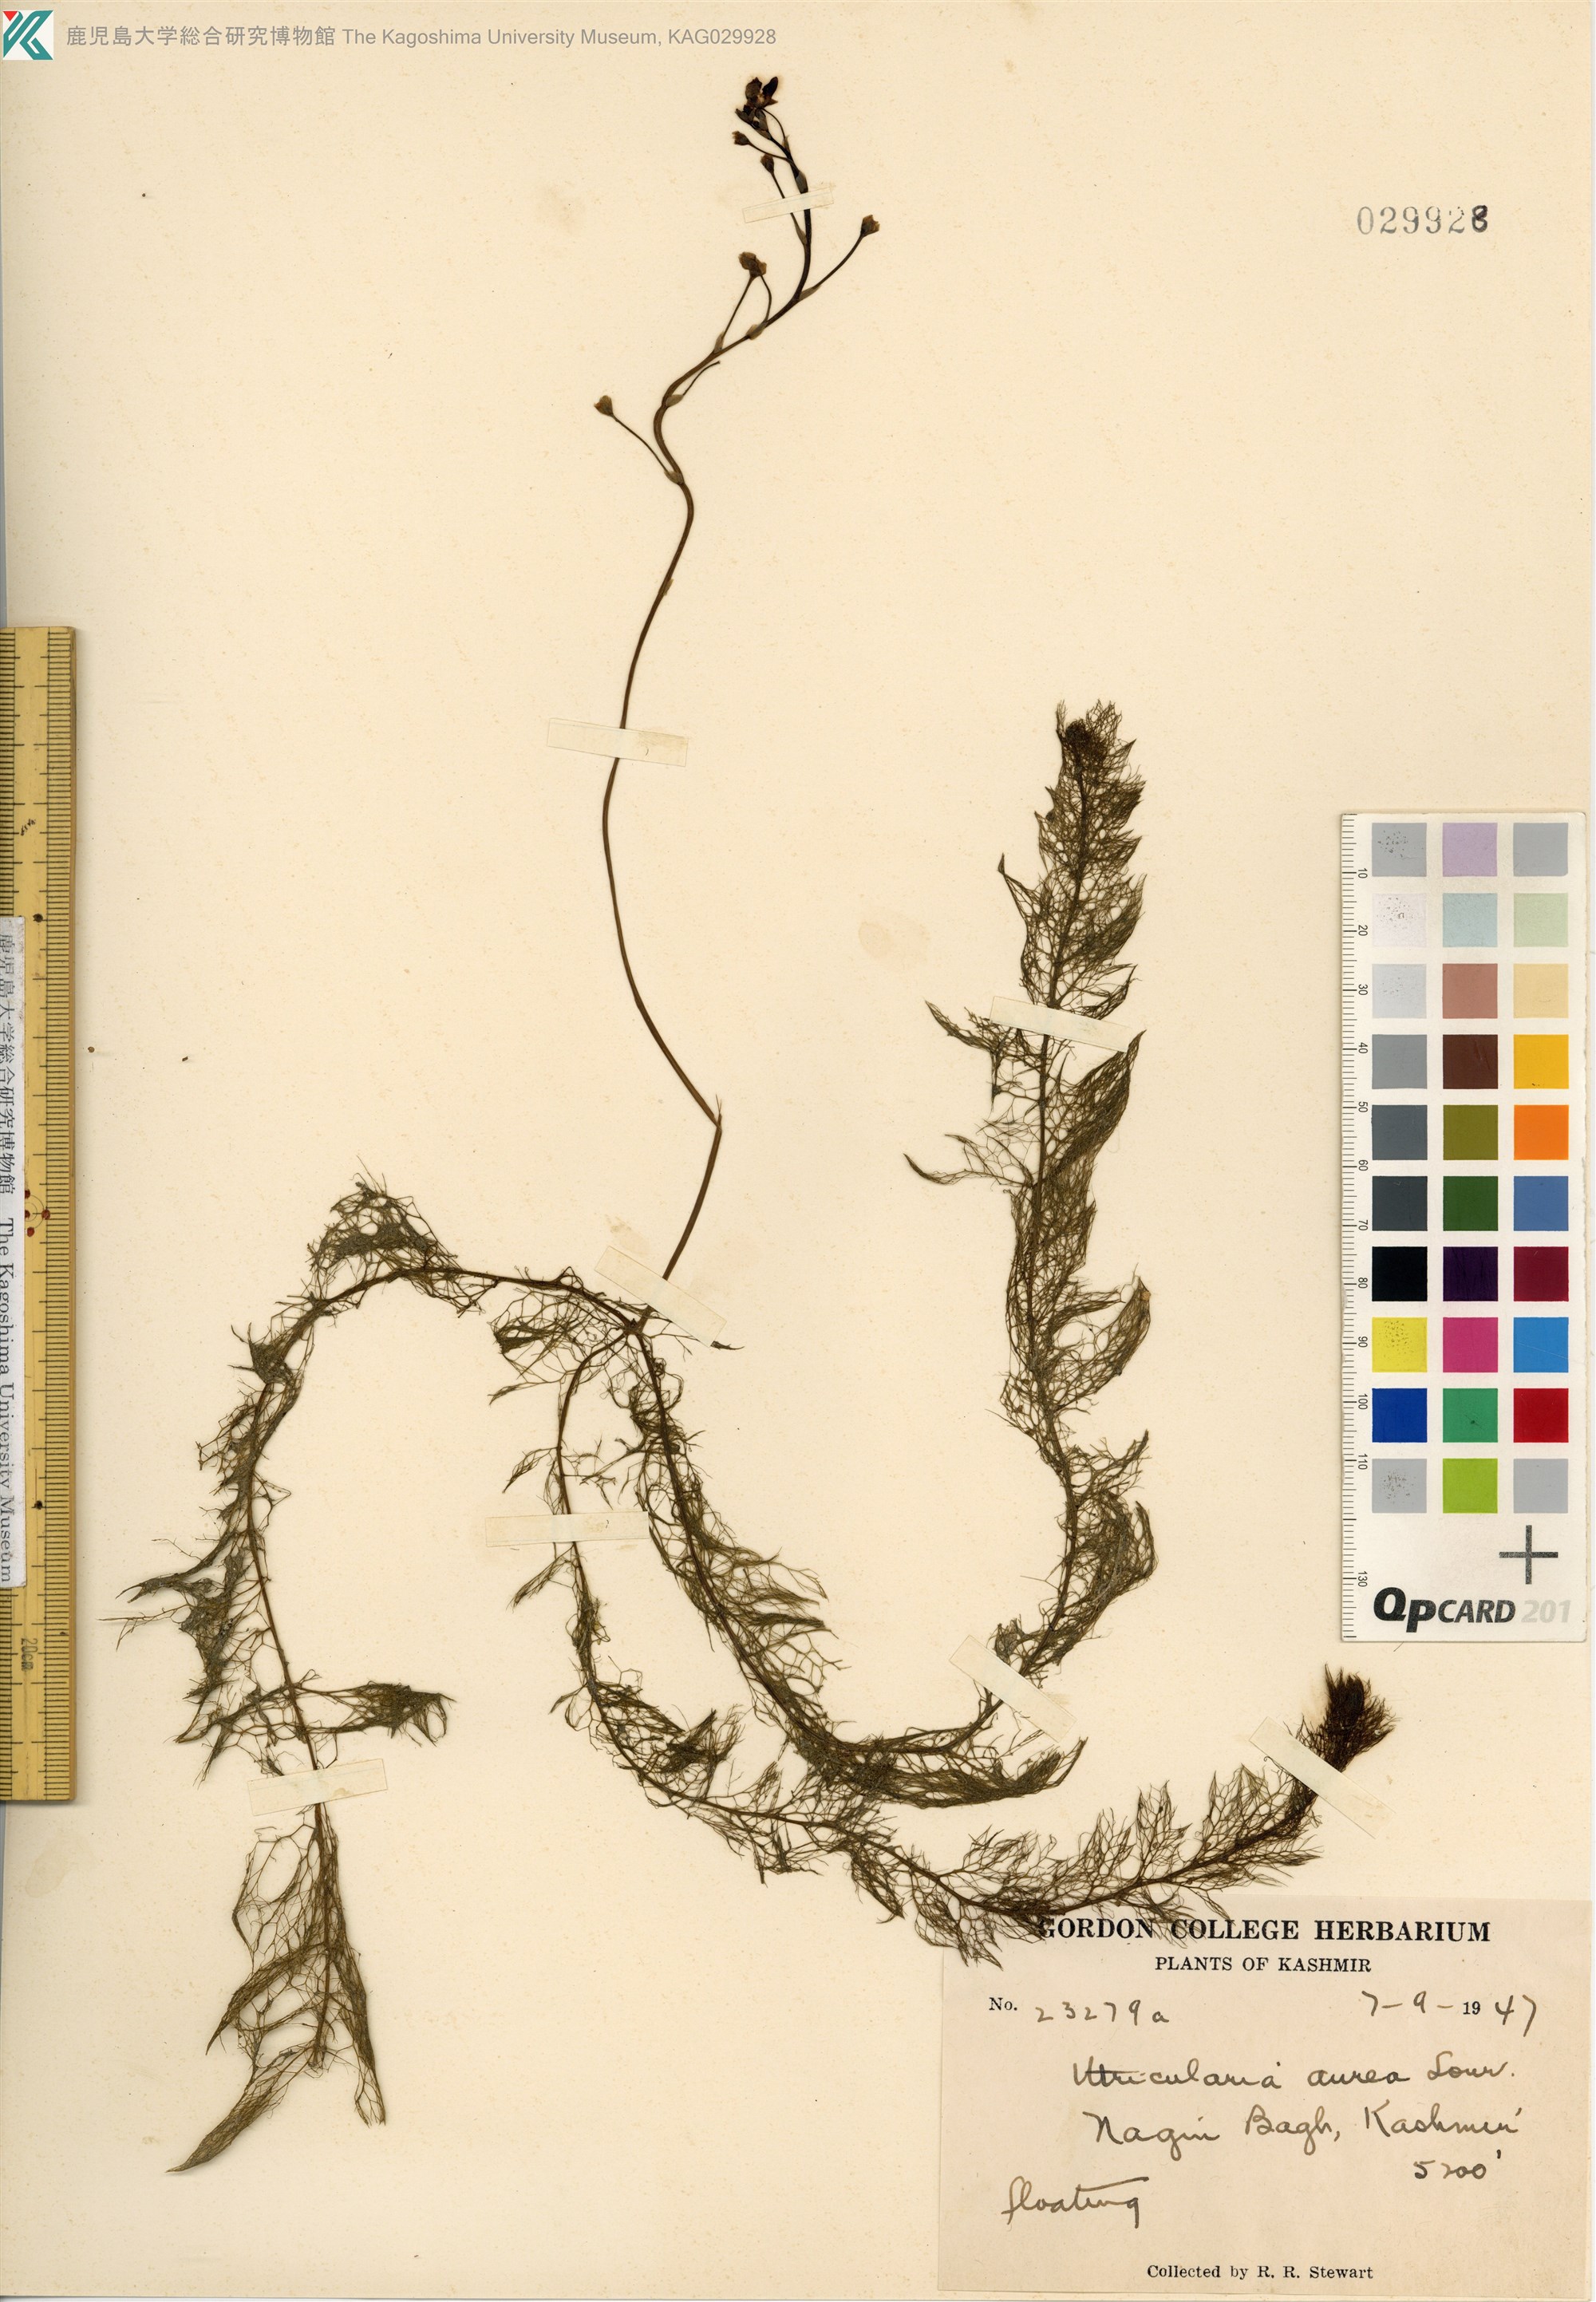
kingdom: Plantae
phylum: Tracheophyta
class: Magnoliopsida
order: Lamiales
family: Lentibulariaceae
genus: Utricularia
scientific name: Utricularia aurea
